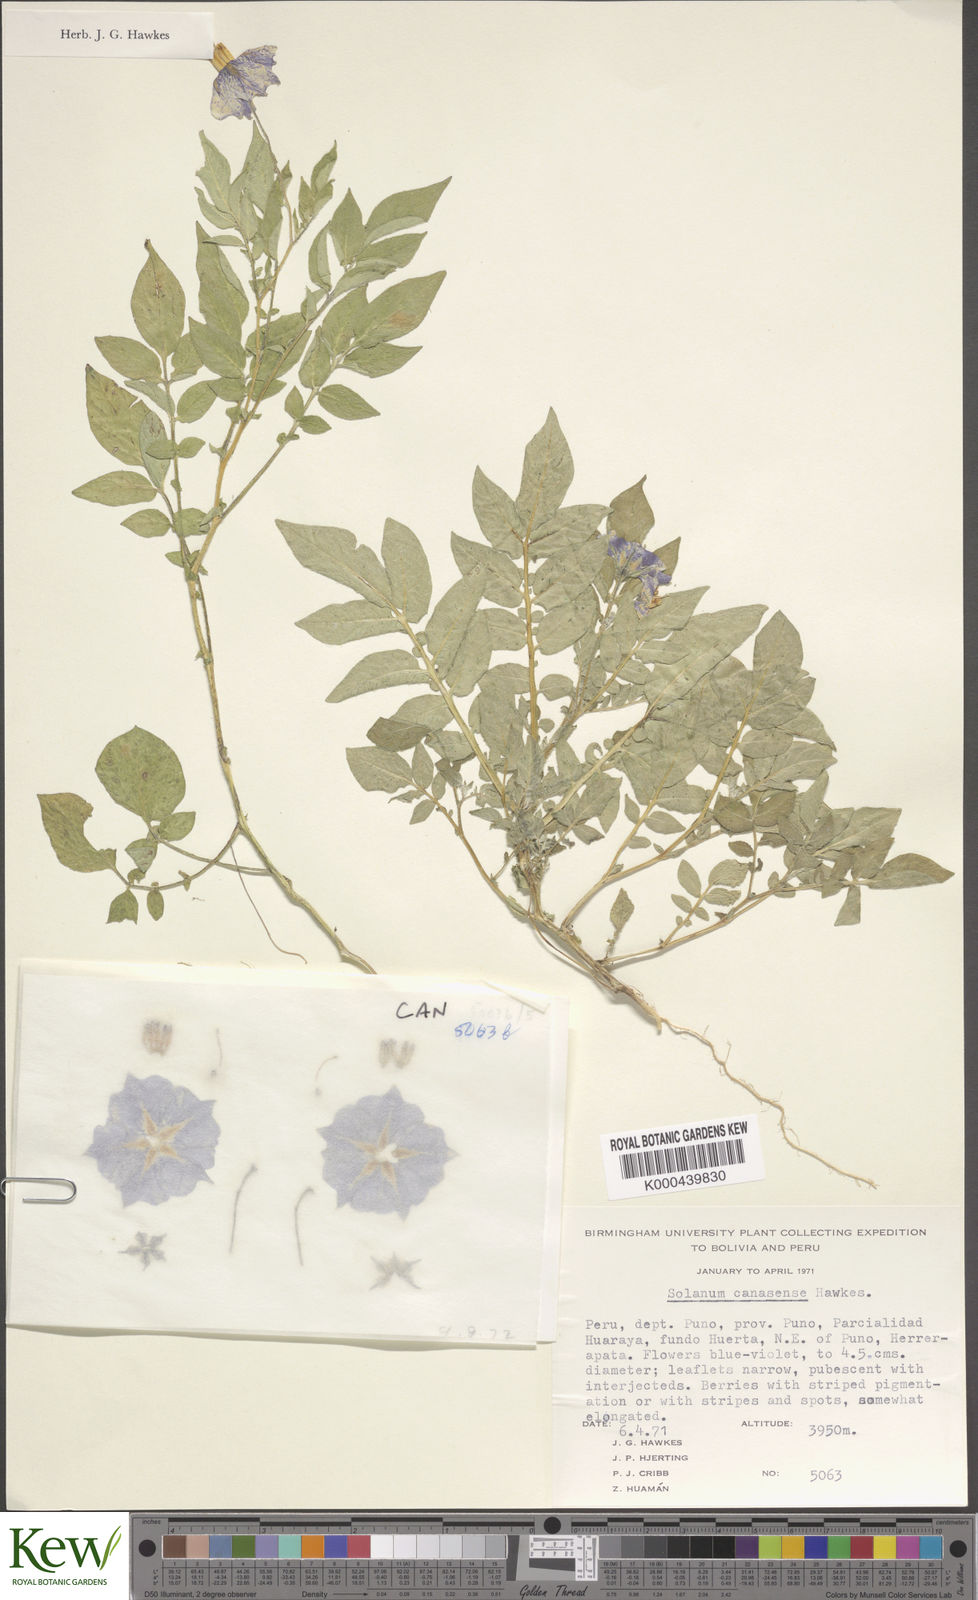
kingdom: Plantae
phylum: Tracheophyta
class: Magnoliopsida
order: Solanales
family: Solanaceae
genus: Solanum
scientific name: Solanum candolleanum
